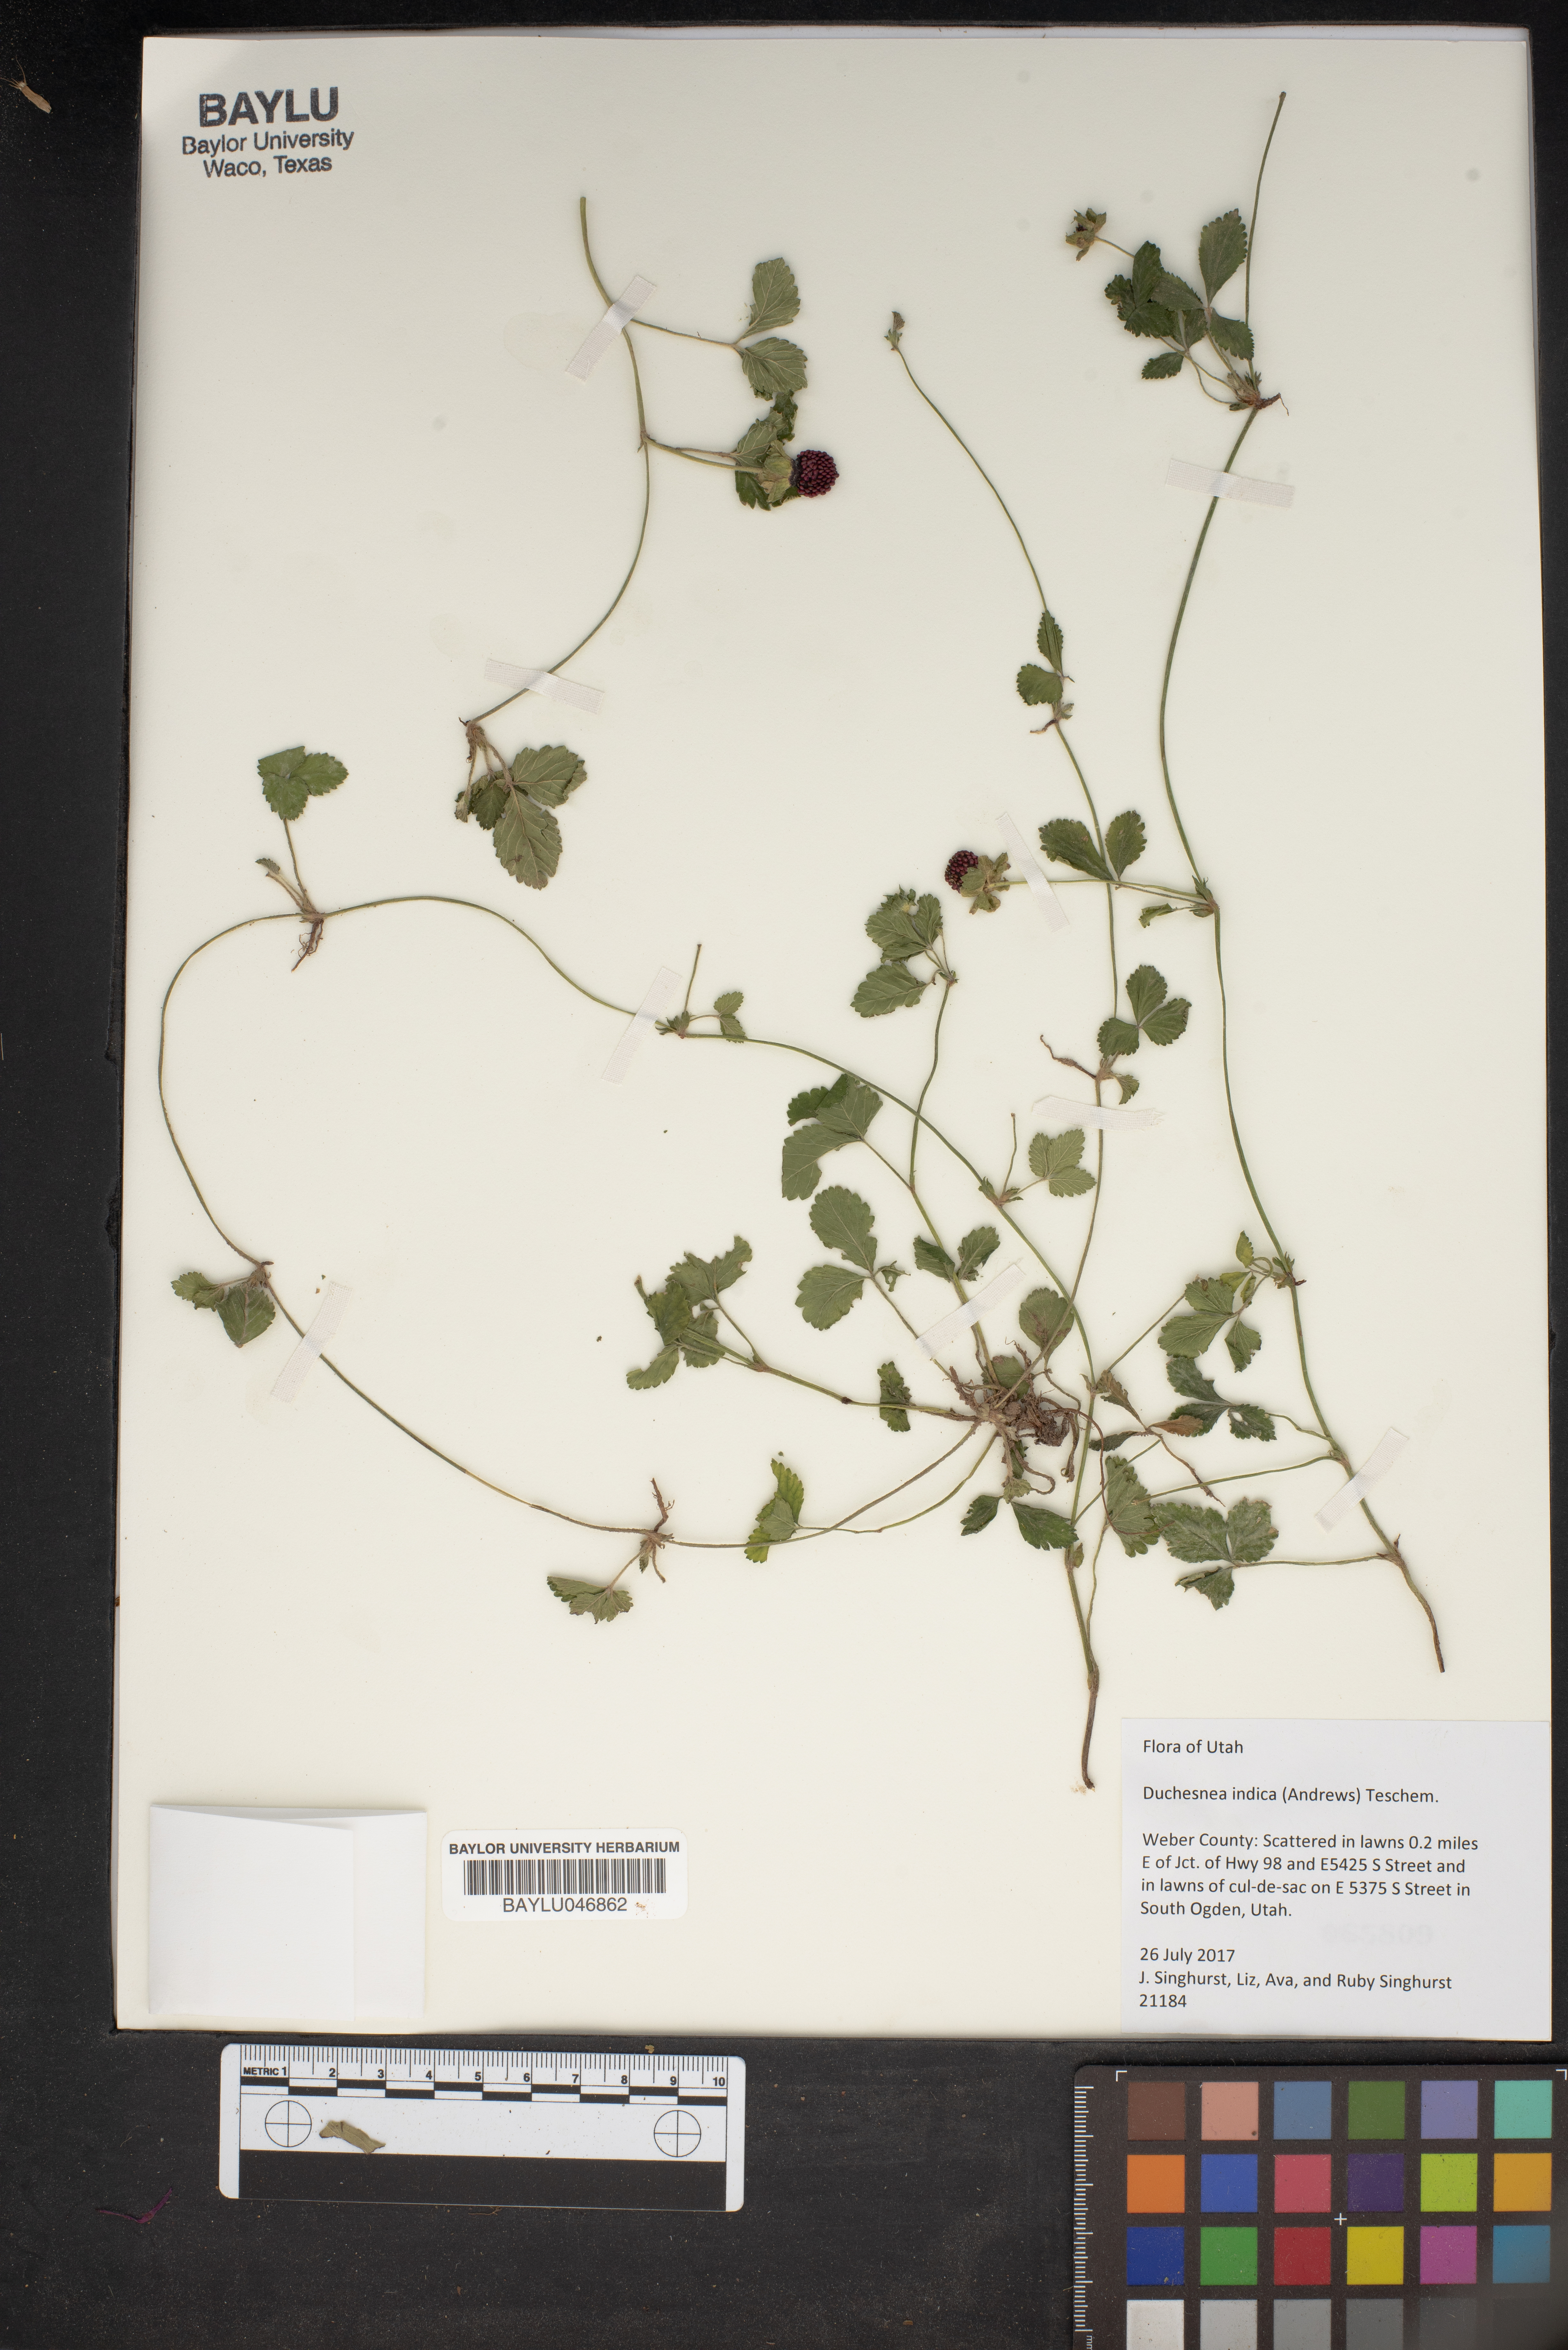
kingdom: Plantae
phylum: Tracheophyta
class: Magnoliopsida
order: Rosales
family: Rosaceae
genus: Potentilla
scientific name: Potentilla indica
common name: Yellow-flowered strawberry
